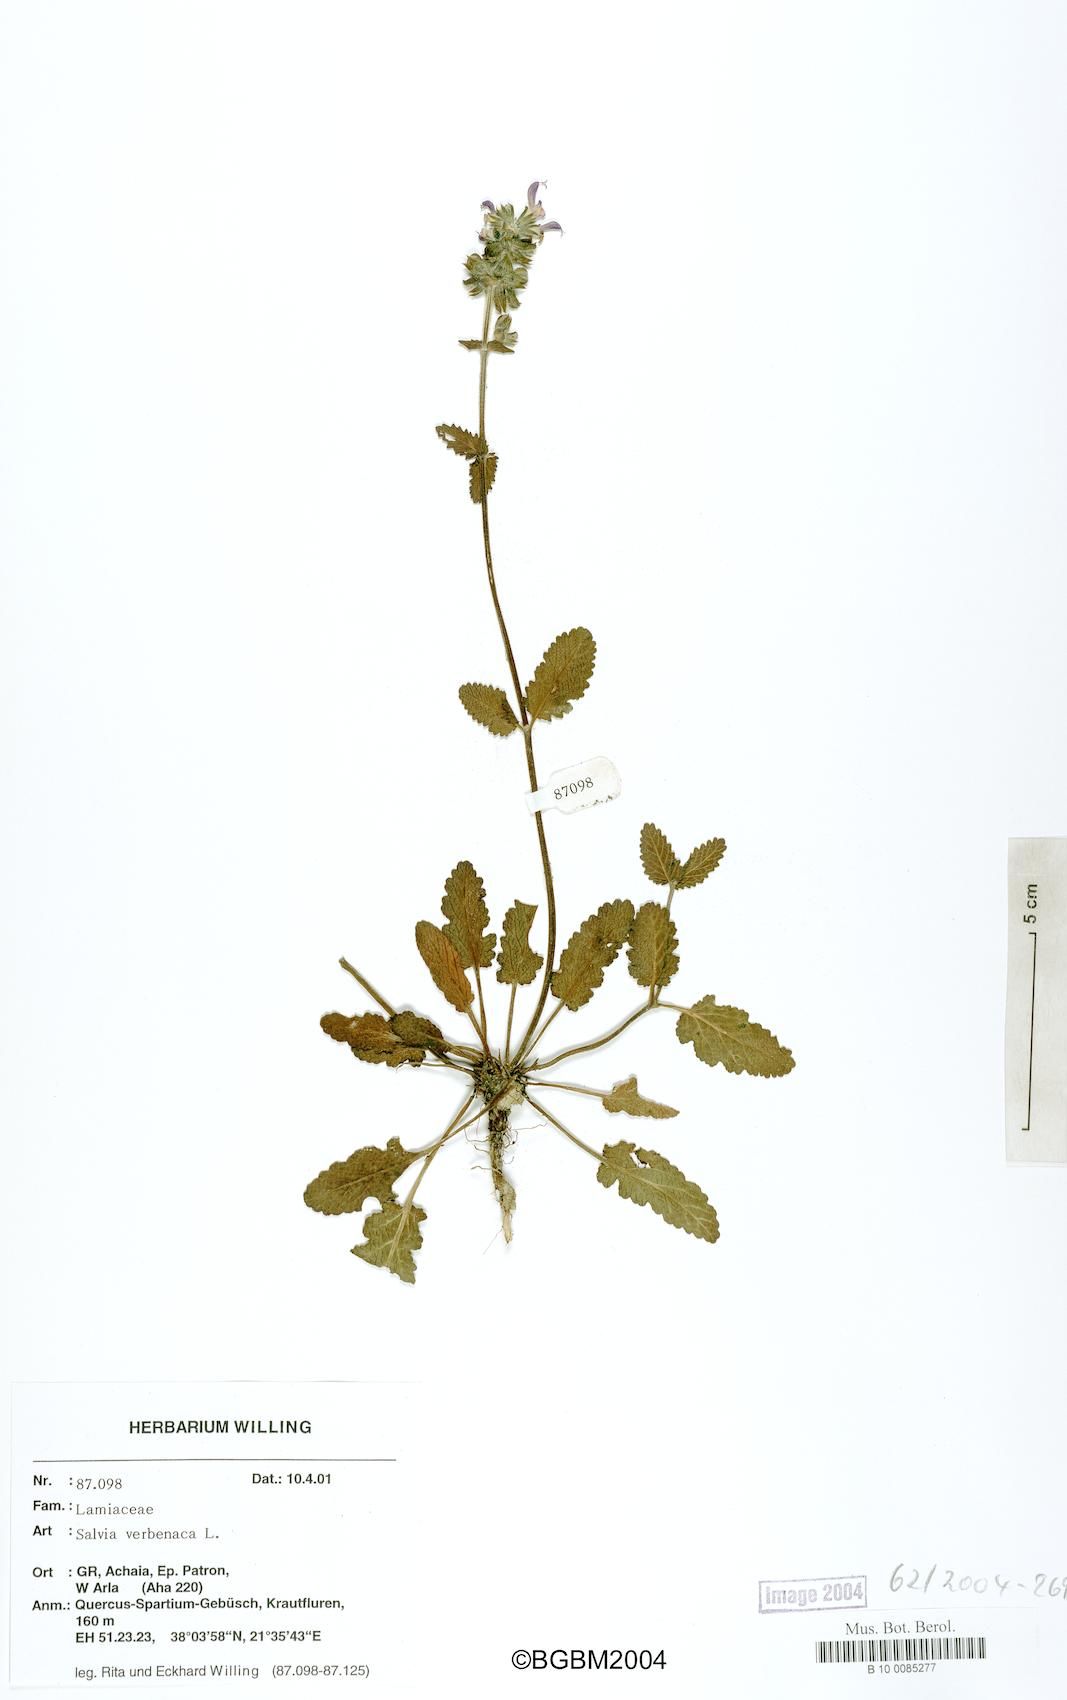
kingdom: Plantae
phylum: Tracheophyta
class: Magnoliopsida
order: Lamiales
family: Lamiaceae
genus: Salvia
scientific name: Salvia verbenaca
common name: Wild clary
